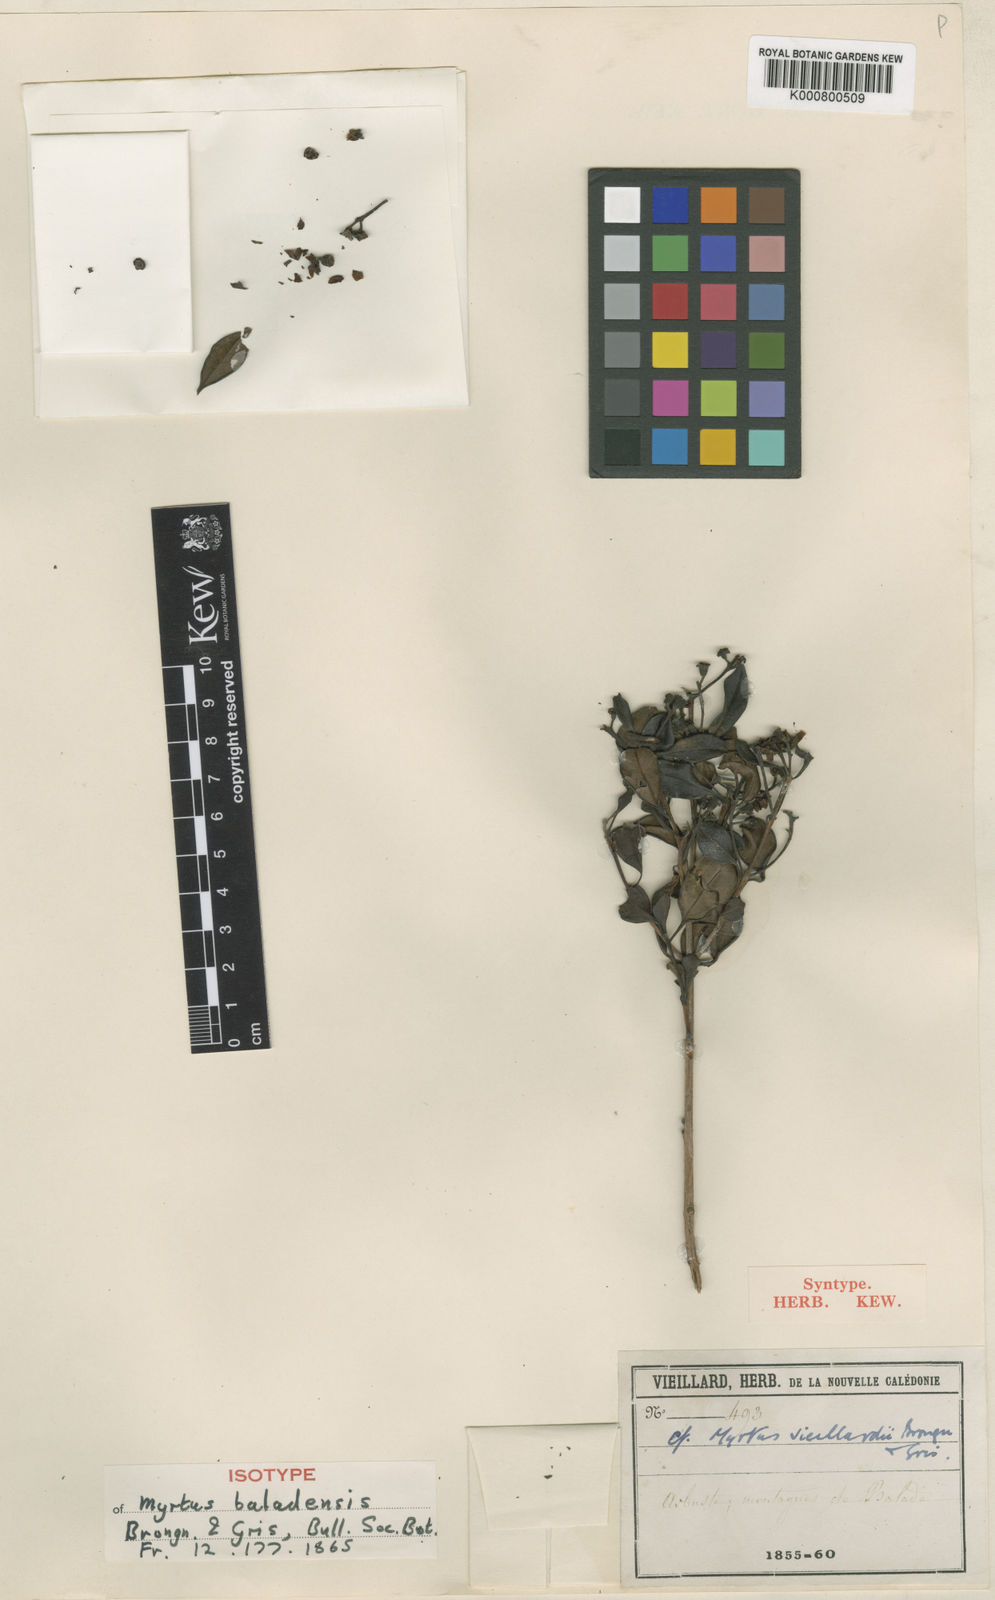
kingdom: Plantae
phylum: Tracheophyta
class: Magnoliopsida
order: Myrtales
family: Myrtaceae
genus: Archirhodomyrtus
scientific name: Archirhodomyrtus baladensis
